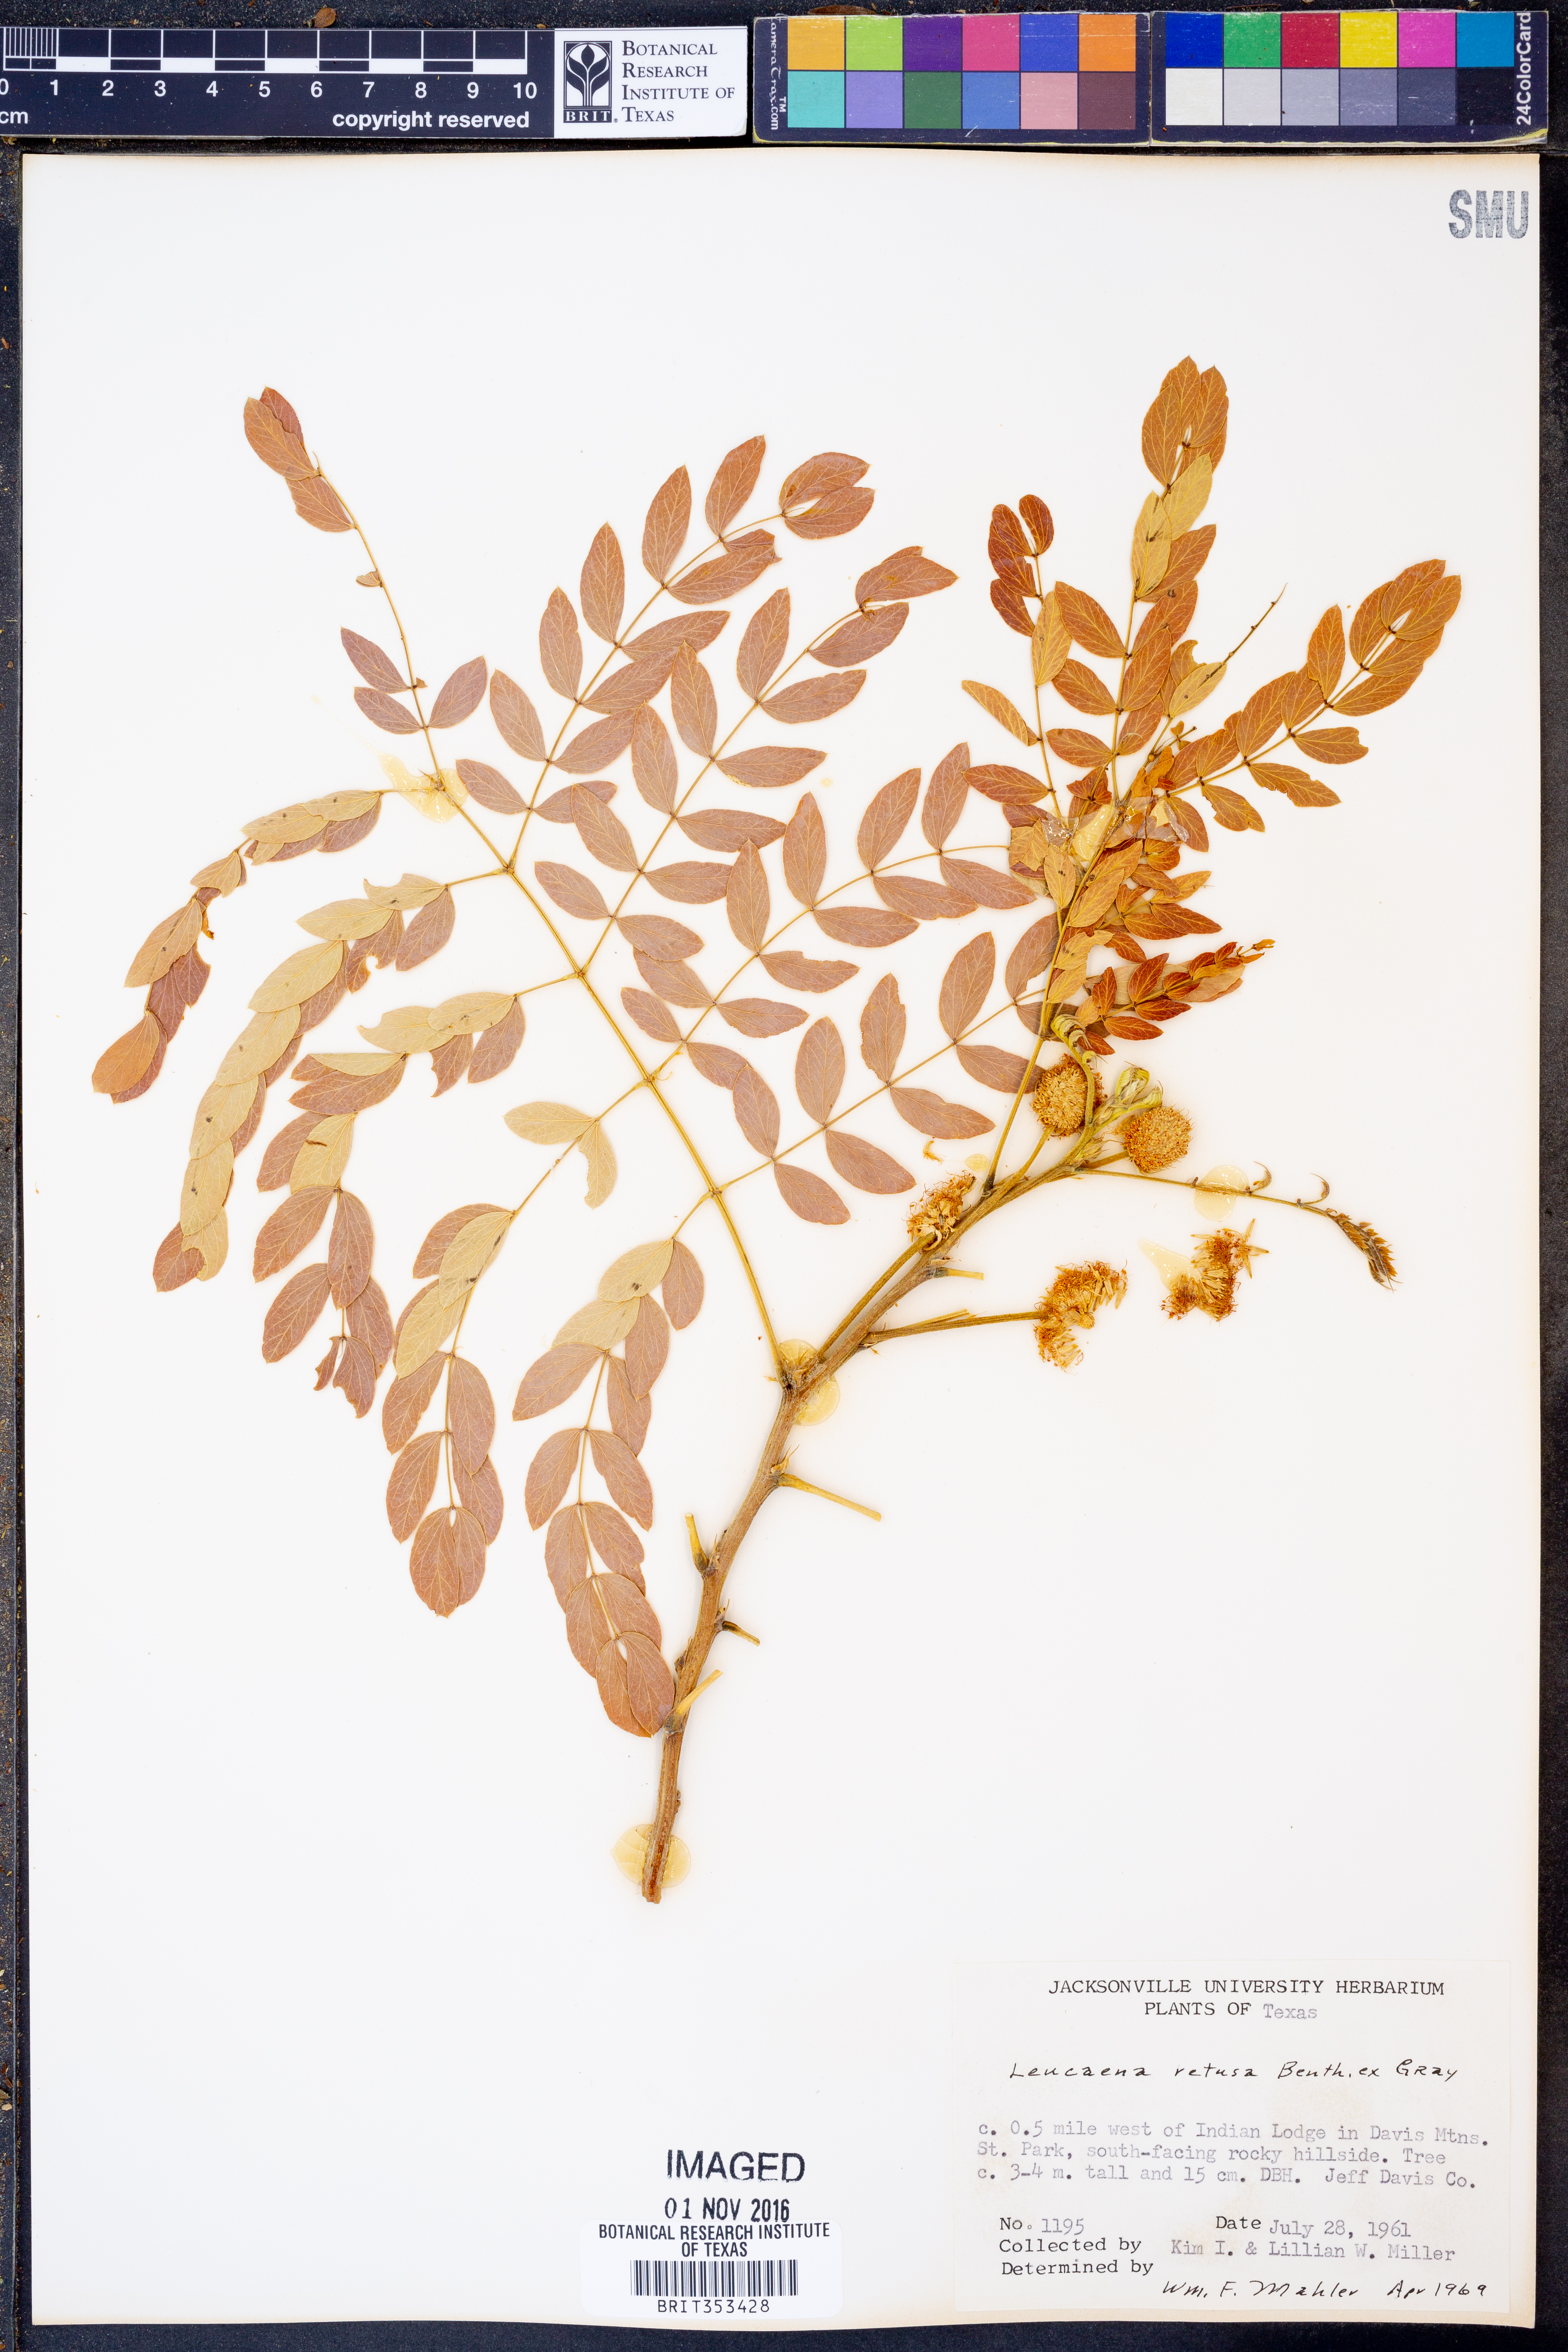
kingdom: Plantae
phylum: Tracheophyta
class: Magnoliopsida
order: Fabales
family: Fabaceae
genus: Leucaena
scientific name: Leucaena retusa
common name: Littleleaf leadtree
